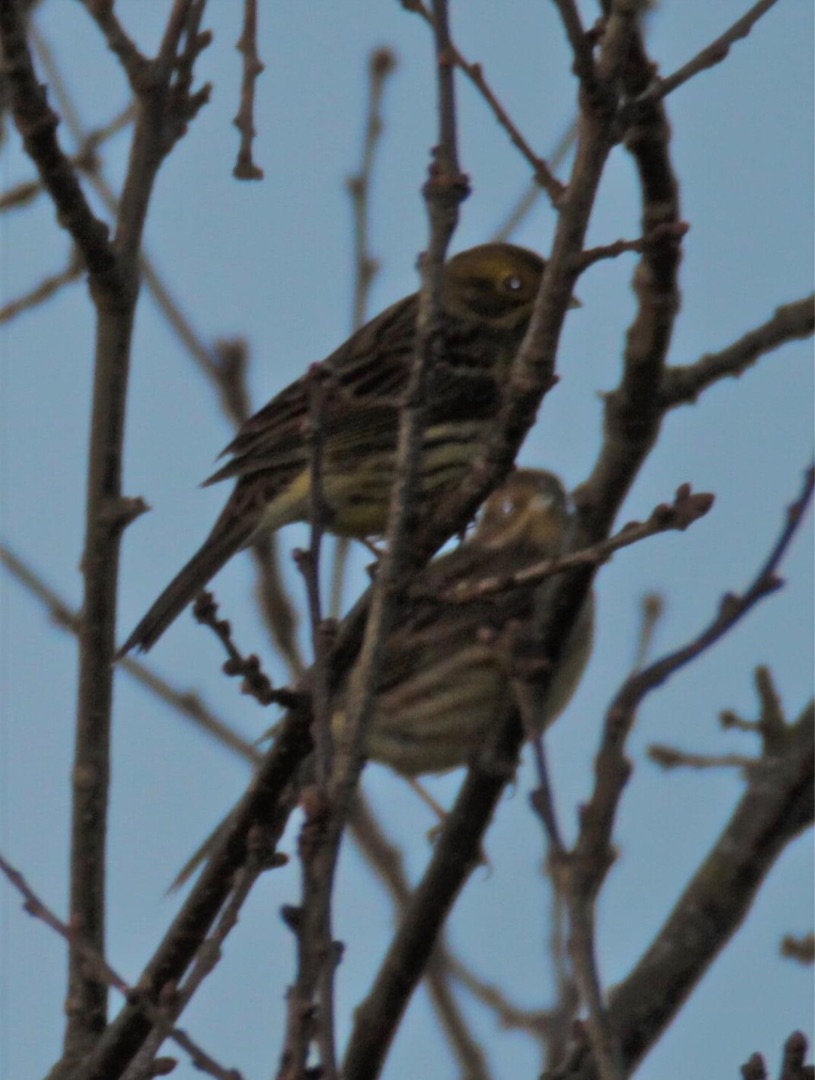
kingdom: Animalia
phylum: Chordata
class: Aves
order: Passeriformes
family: Emberizidae
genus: Emberiza
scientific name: Emberiza citrinella
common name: Gulspurv
